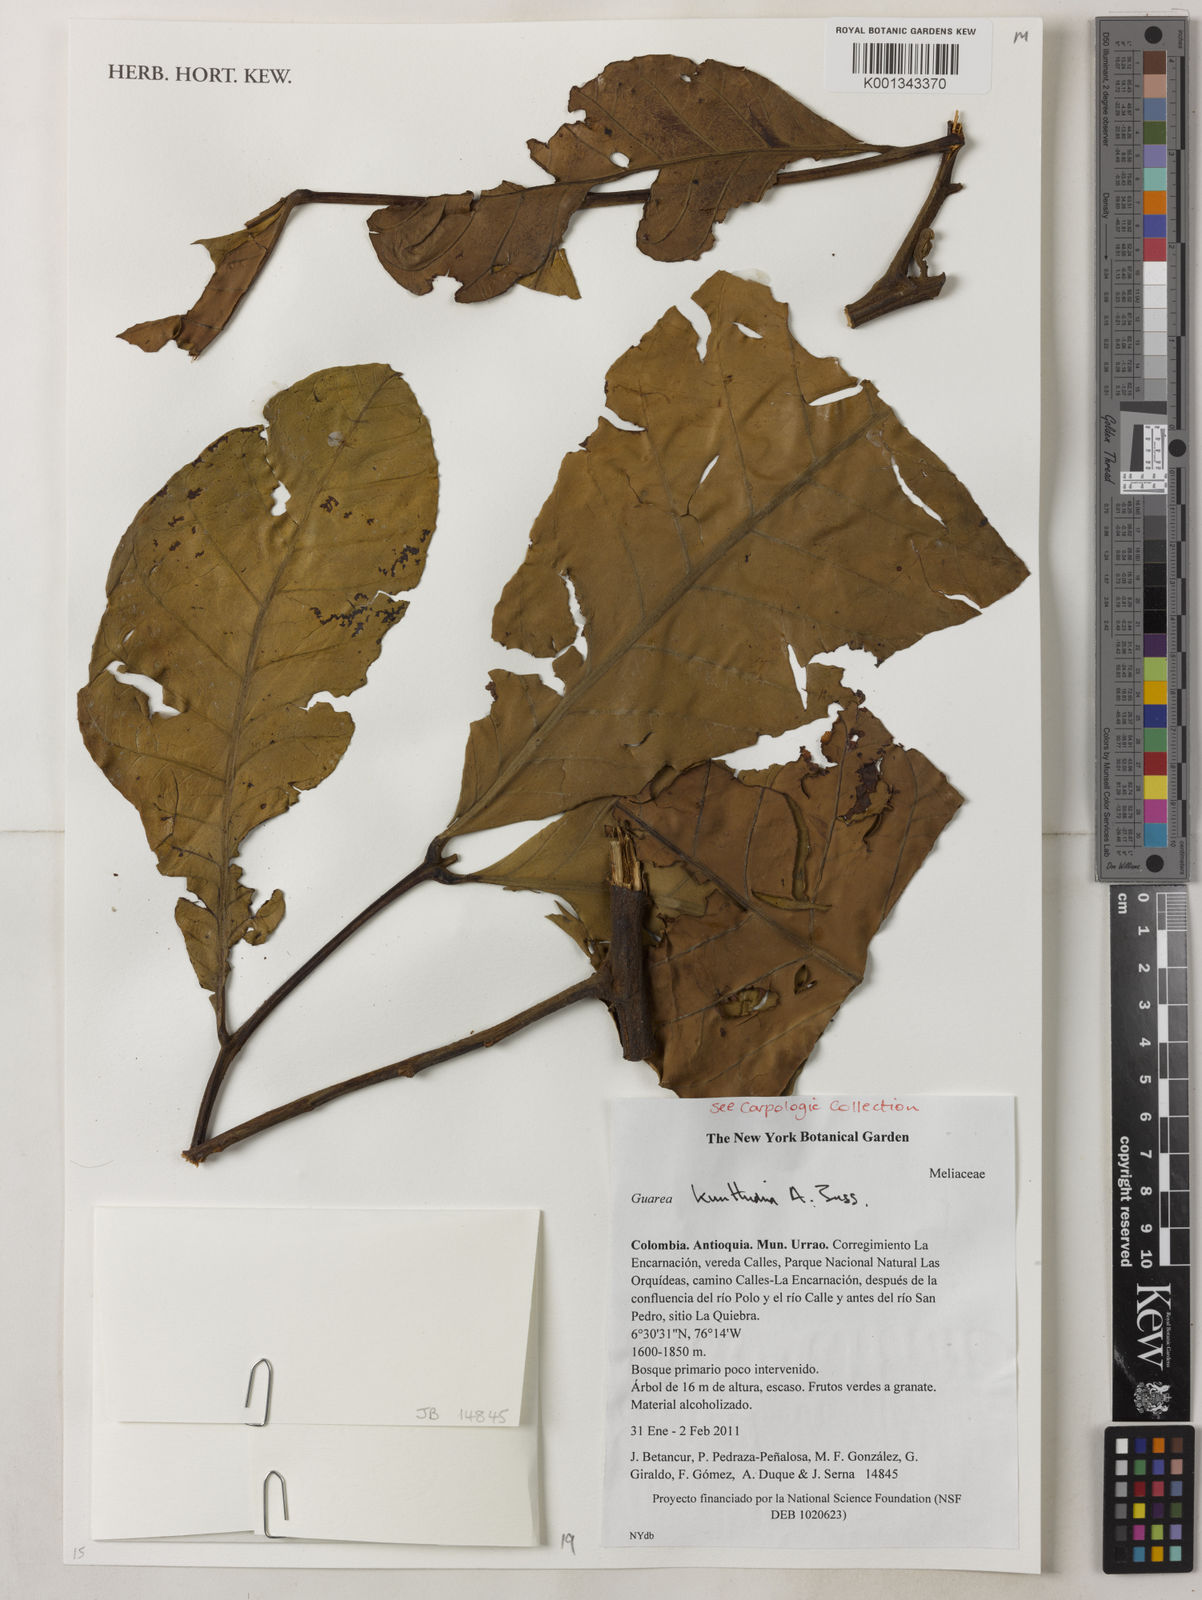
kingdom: Plantae
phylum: Tracheophyta
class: Magnoliopsida
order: Sapindales
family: Meliaceae
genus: Guarea
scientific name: Guarea kunthiana
